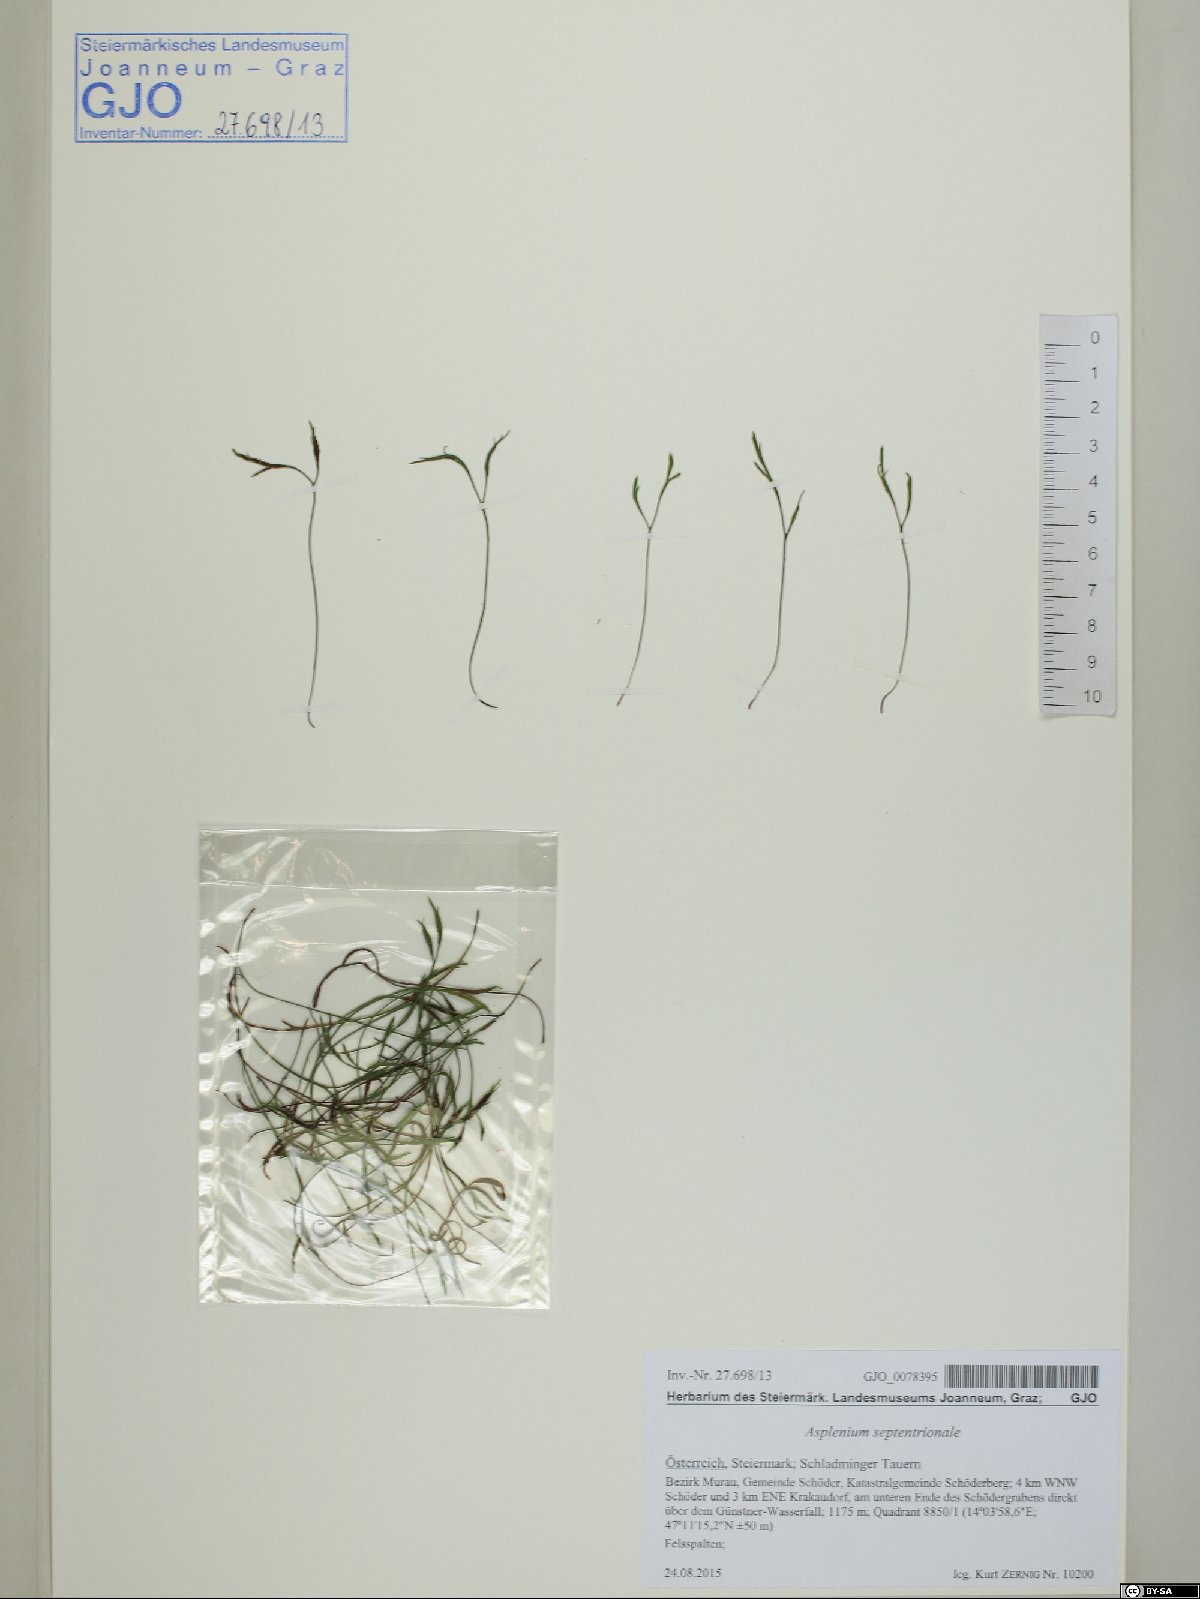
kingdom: Plantae
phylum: Tracheophyta
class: Polypodiopsida
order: Polypodiales
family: Aspleniaceae
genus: Asplenium
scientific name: Asplenium septentrionale
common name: Forked spleenwort
